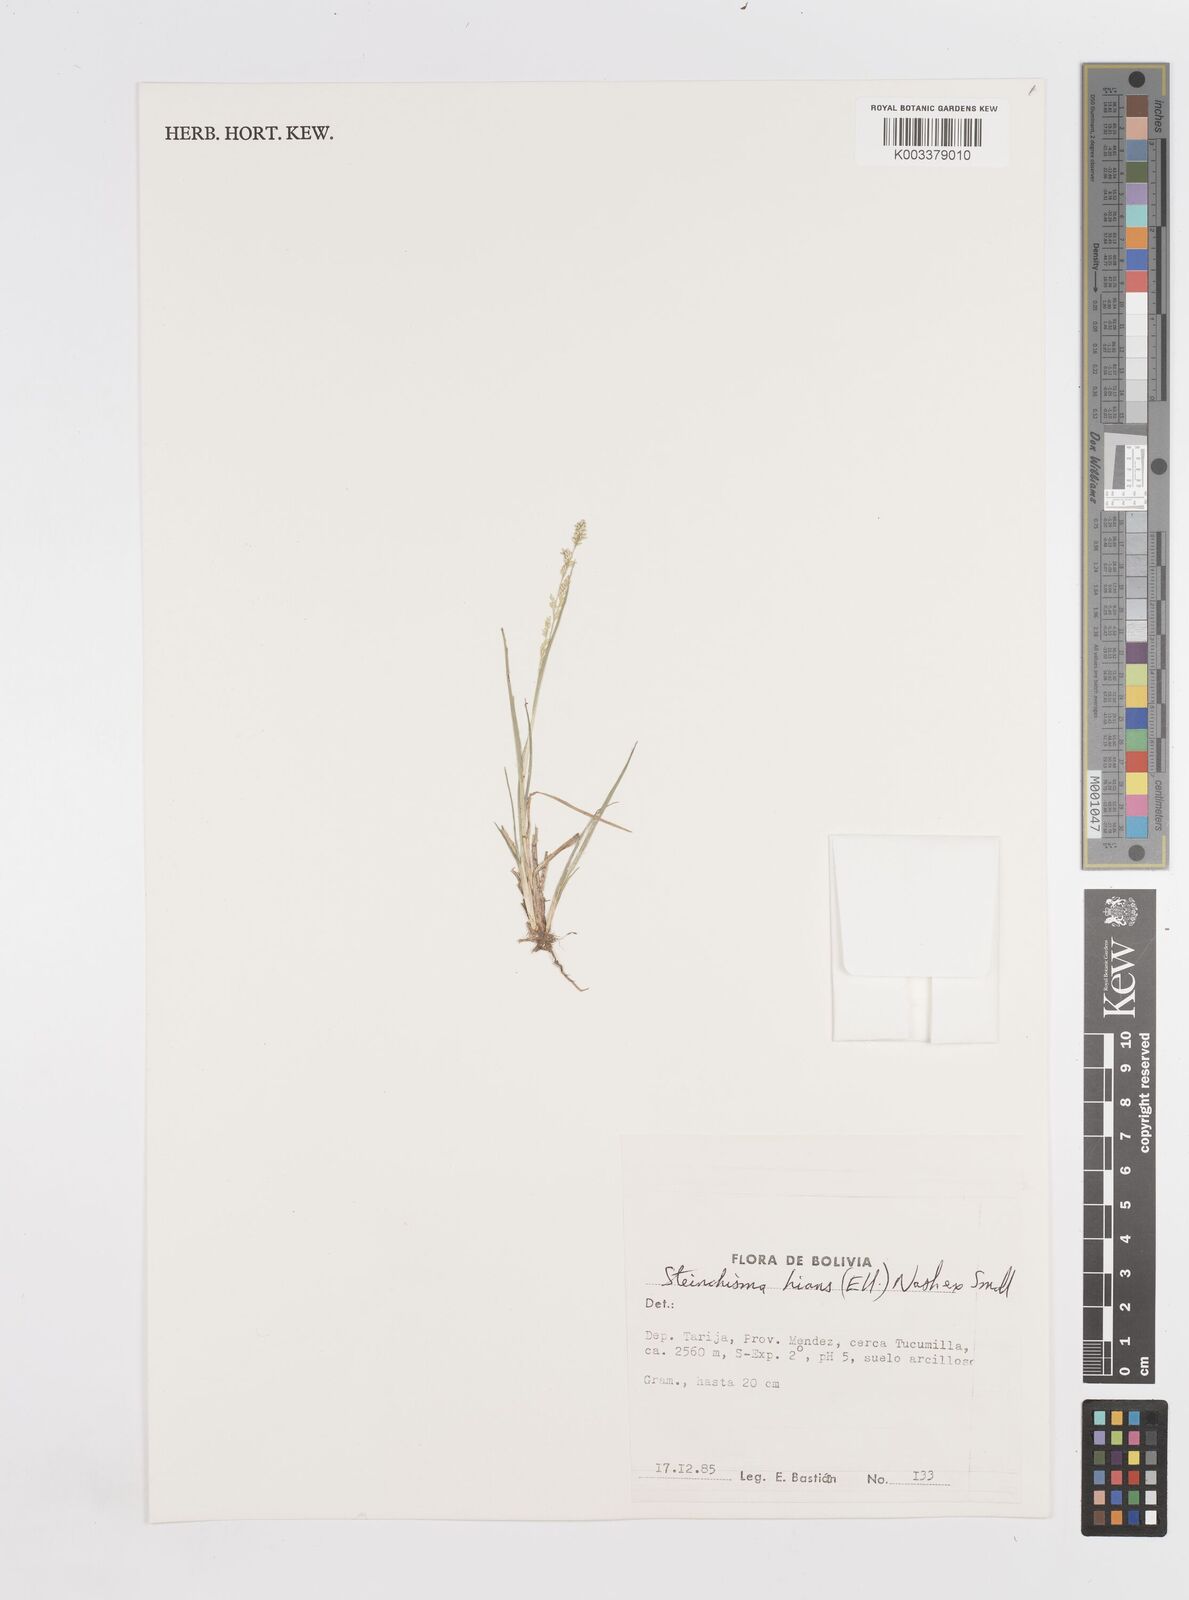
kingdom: Plantae
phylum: Tracheophyta
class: Liliopsida
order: Poales
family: Poaceae
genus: Steinchisma
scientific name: Steinchisma spathellosum
